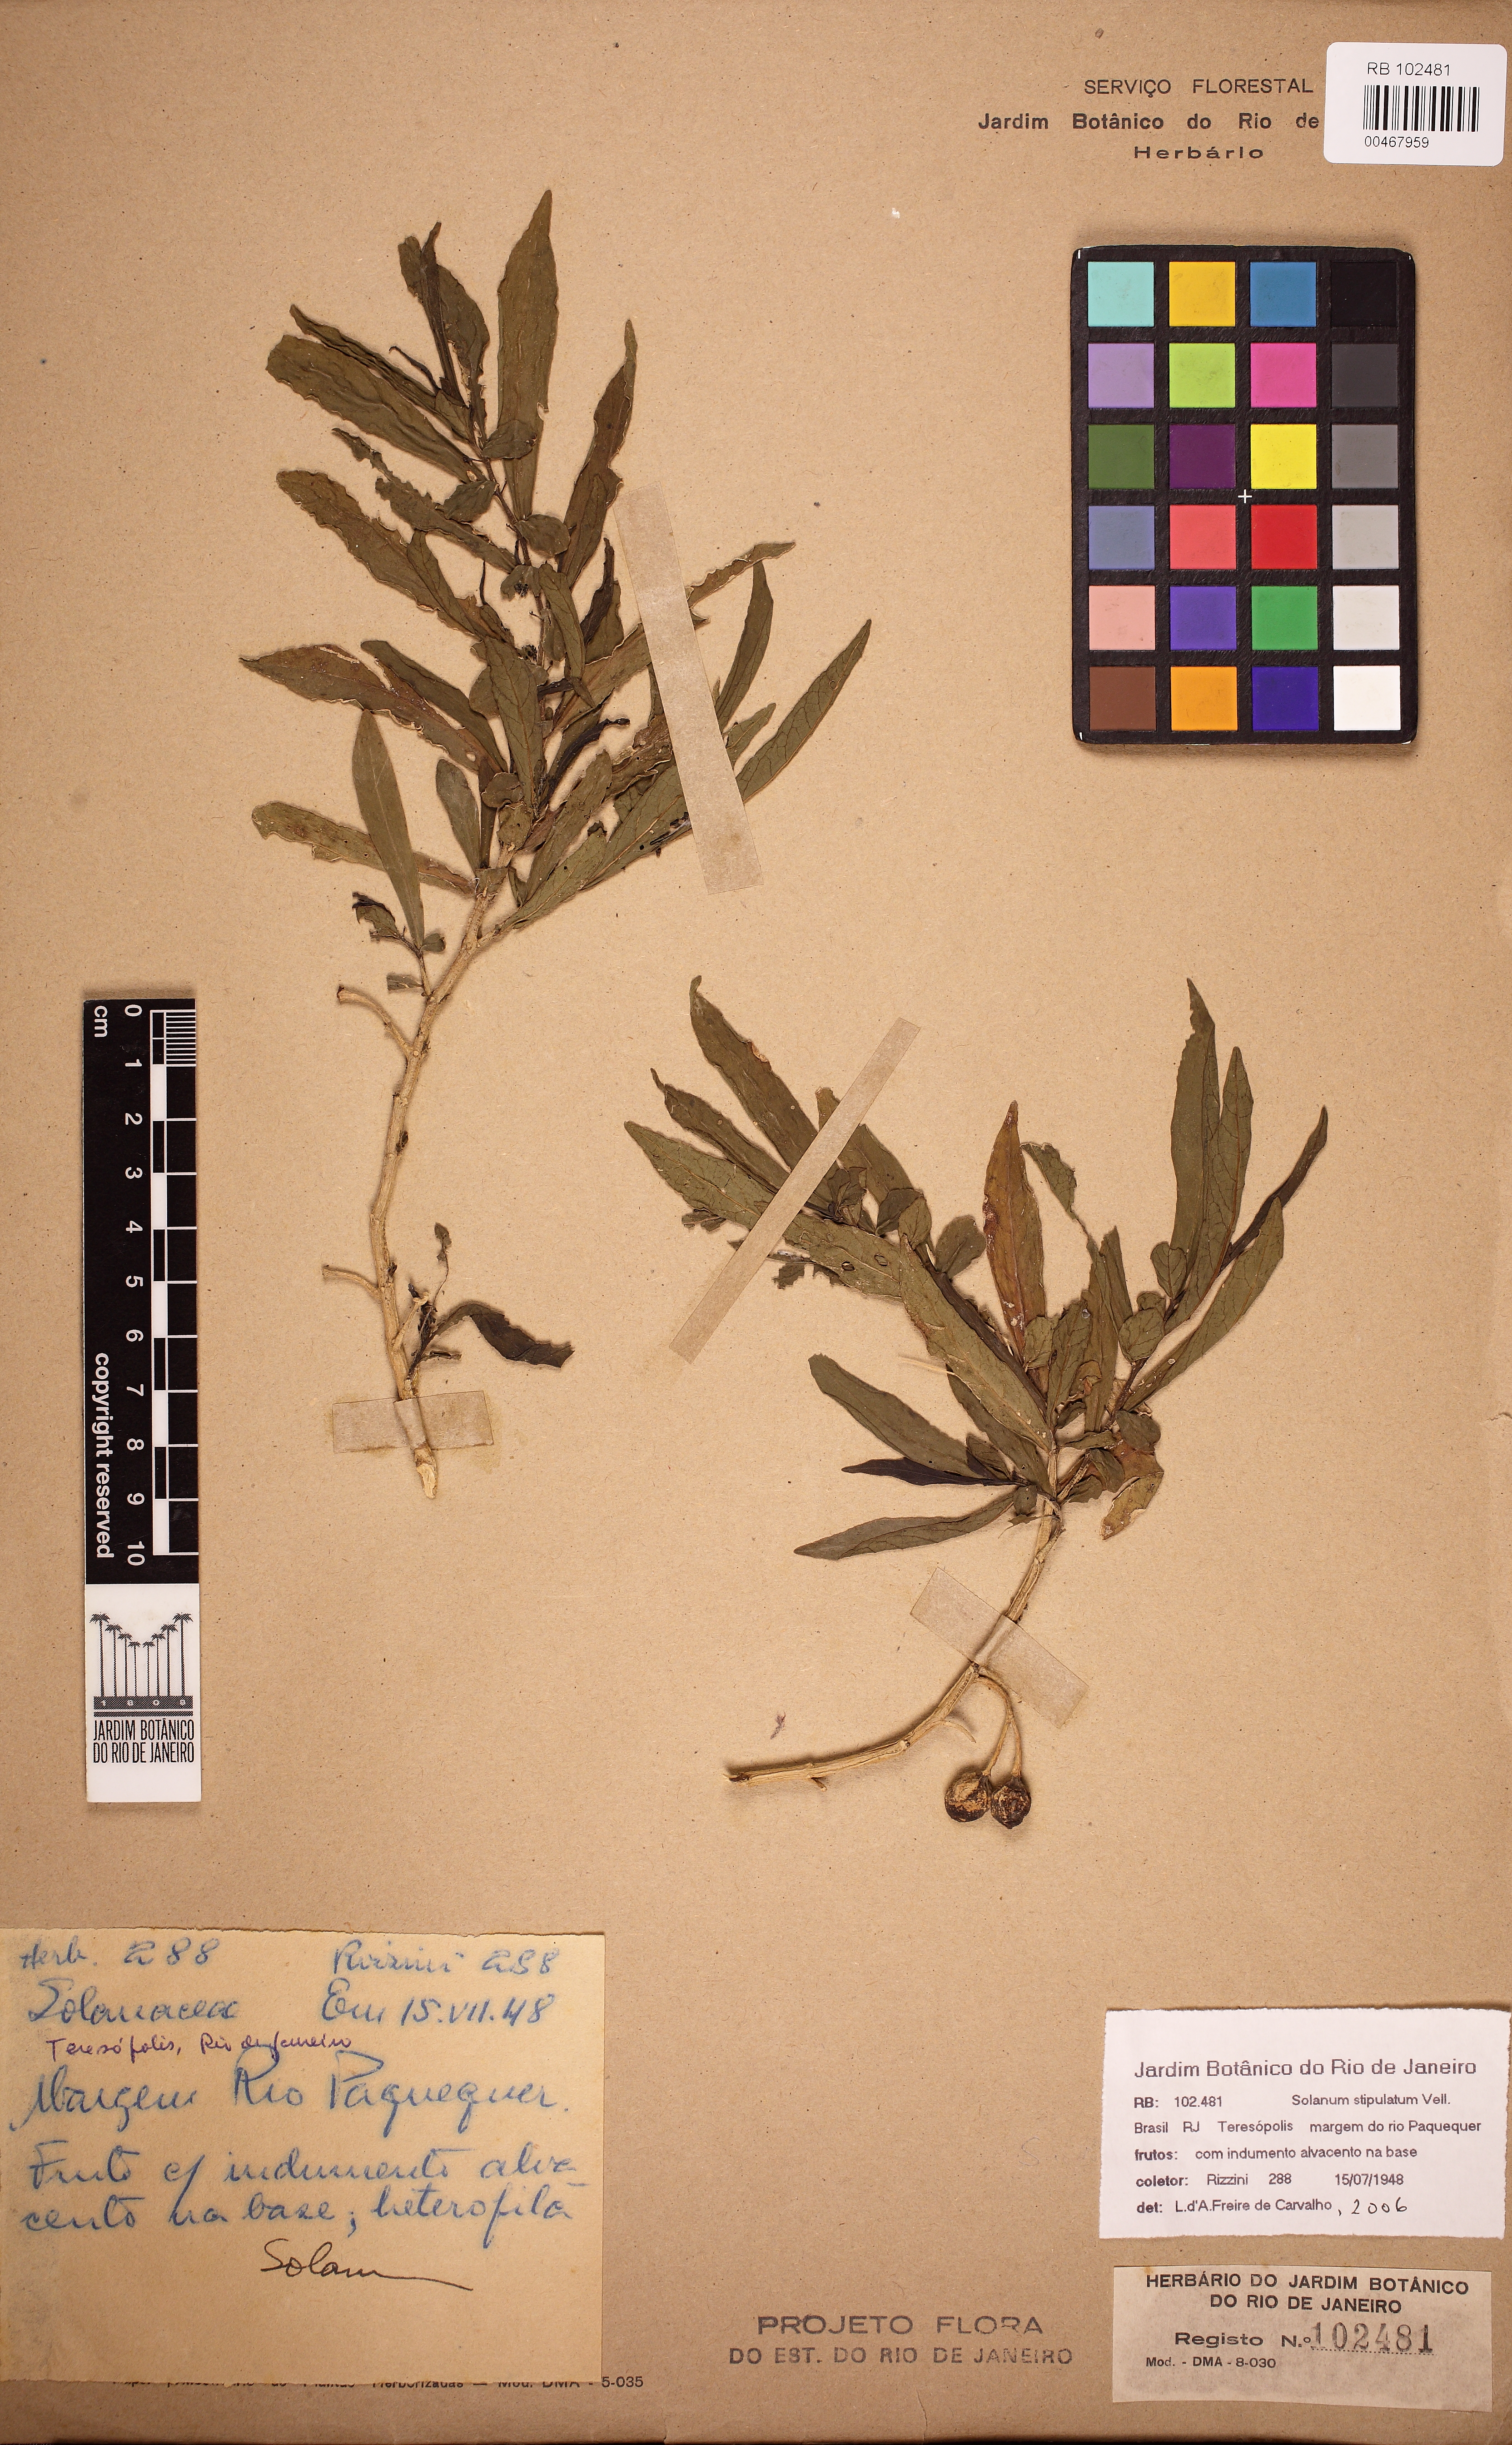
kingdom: Plantae
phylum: Tracheophyta
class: Magnoliopsida
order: Solanales
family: Solanaceae
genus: Solanum
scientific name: Solanum stipulatum
